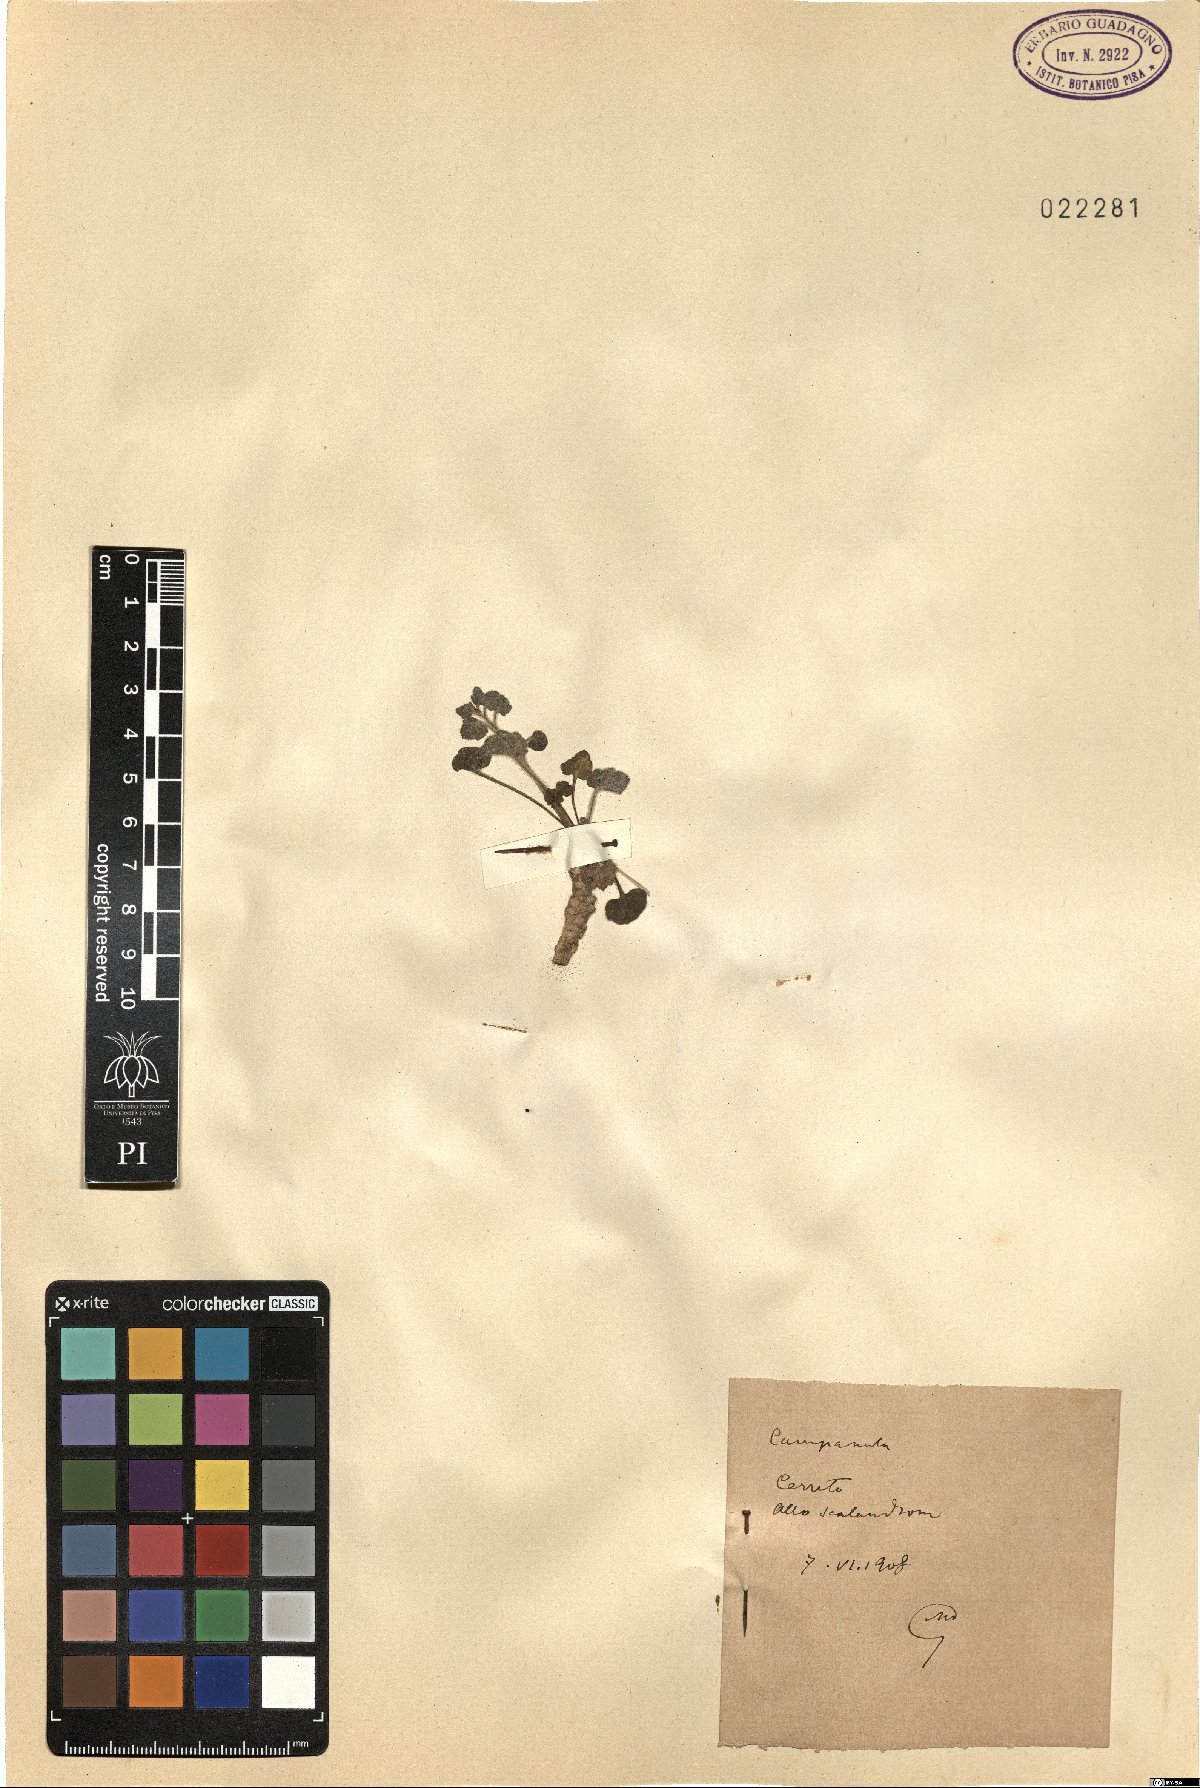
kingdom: Plantae
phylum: Tracheophyta
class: Magnoliopsida
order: Asterales
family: Campanulaceae
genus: Campanula
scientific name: Campanula
